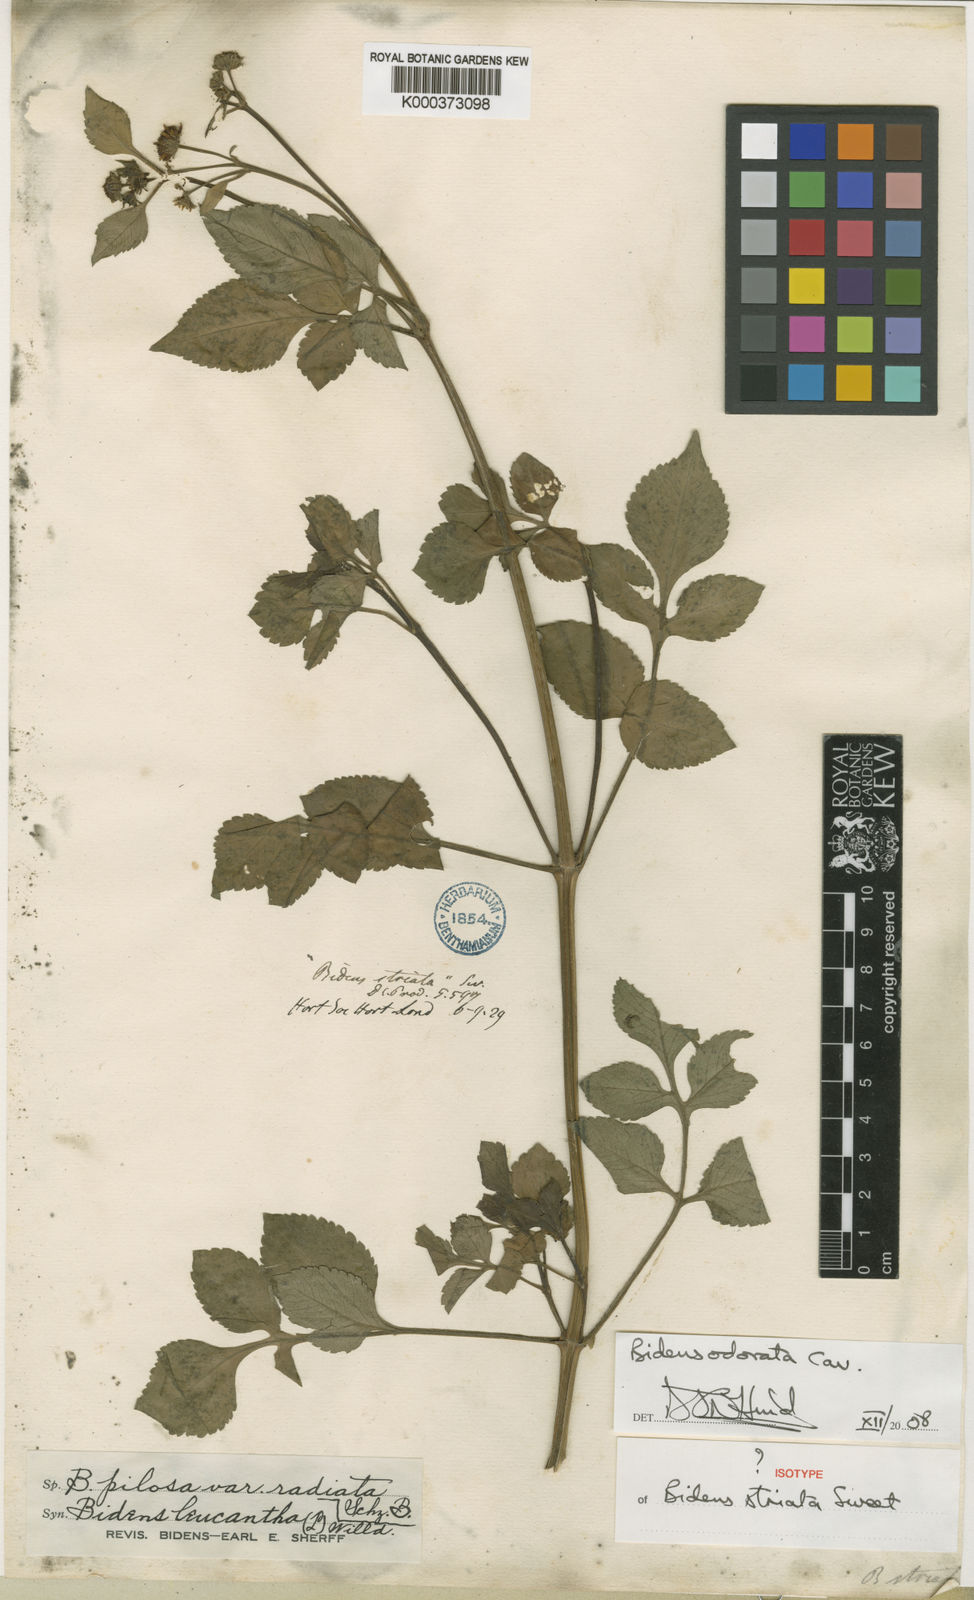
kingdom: Plantae
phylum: Tracheophyta
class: Magnoliopsida
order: Asterales
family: Asteraceae
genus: Bidens
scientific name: Bidens pilosa
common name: Black-jack
